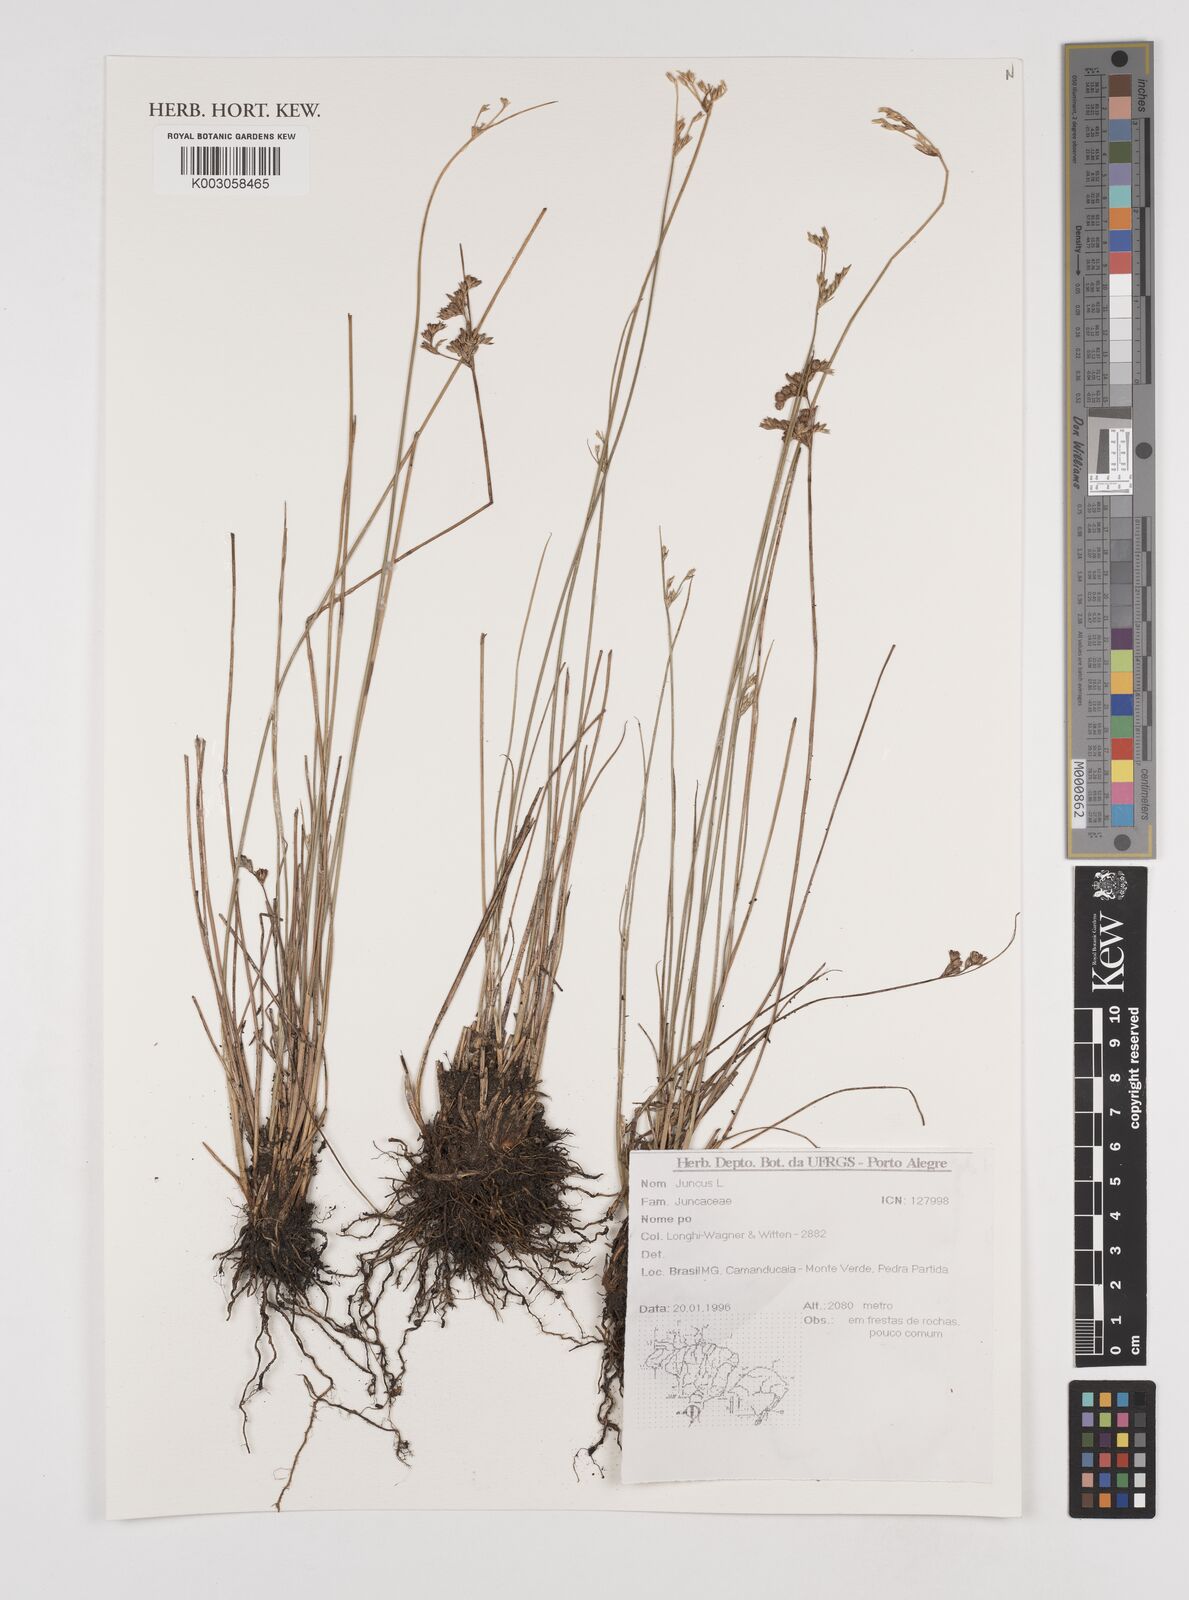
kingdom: Plantae
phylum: Tracheophyta
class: Liliopsida
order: Poales
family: Juncaceae
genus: Juncus
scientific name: Juncus
